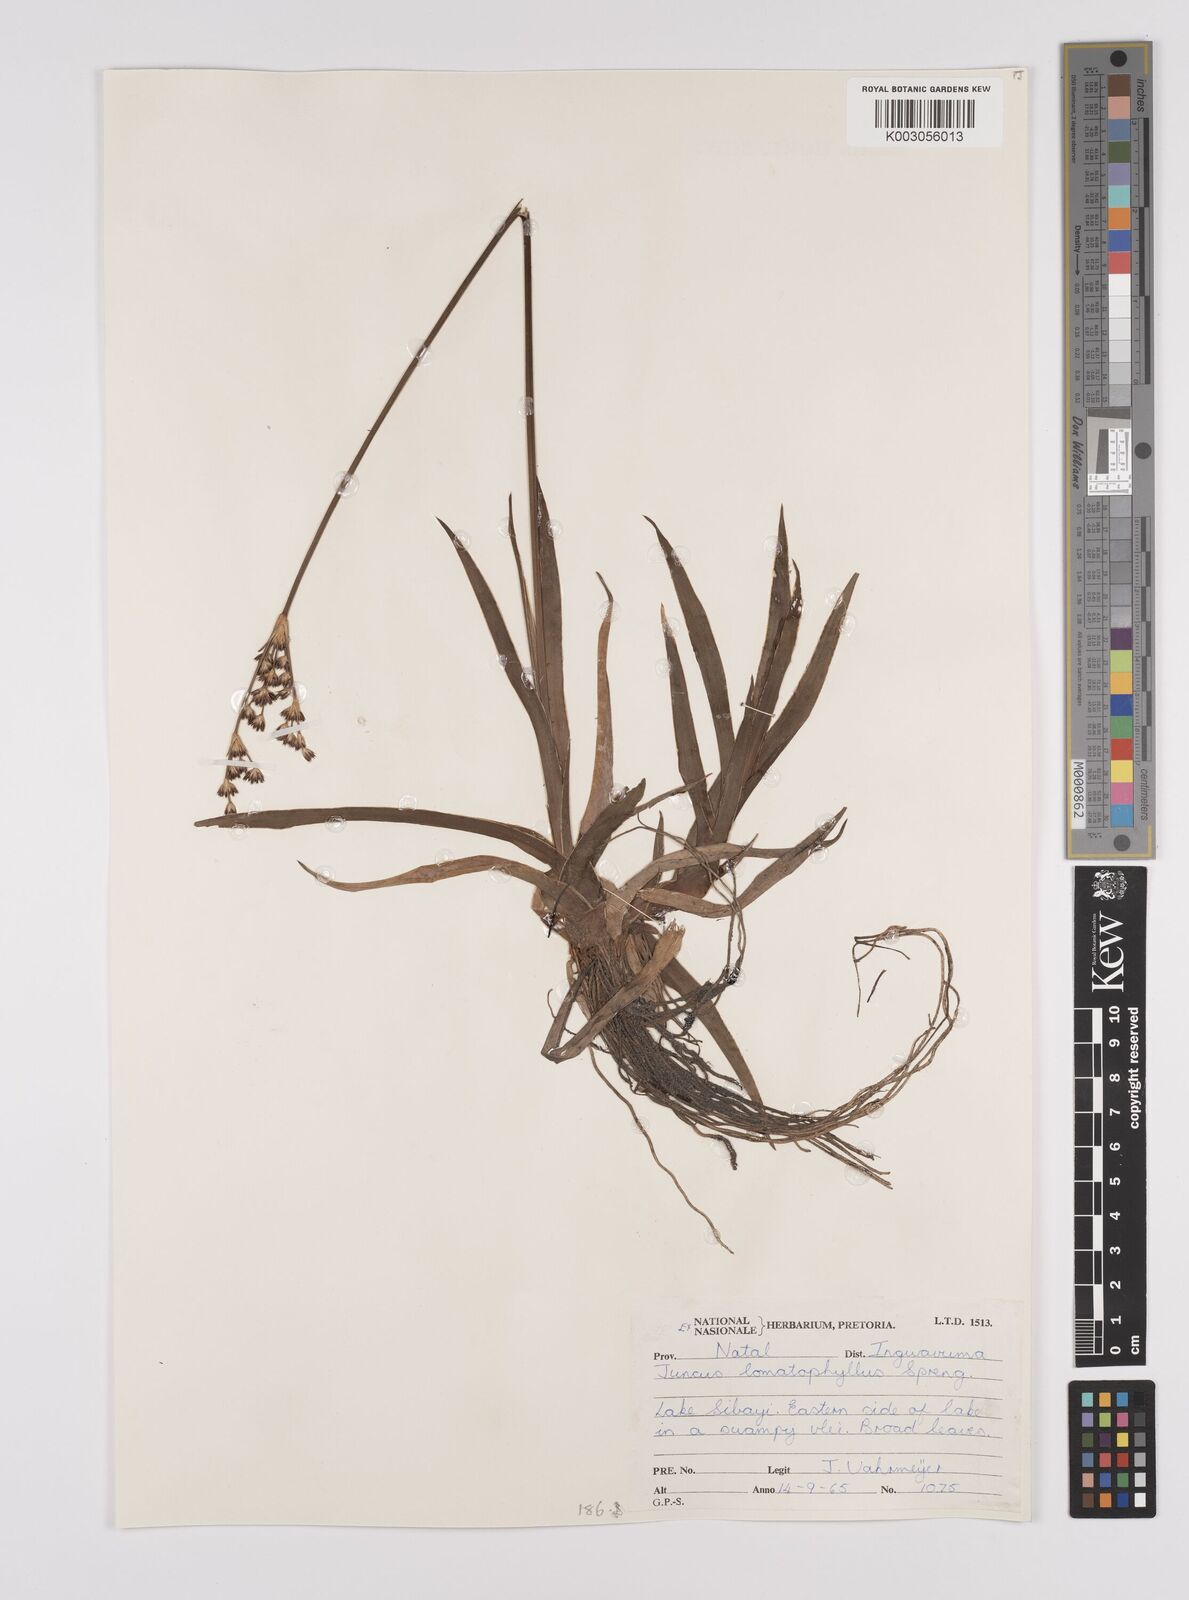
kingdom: Plantae
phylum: Tracheophyta
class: Liliopsida
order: Poales
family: Juncaceae
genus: Juncus
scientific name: Juncus lomatophyllus
